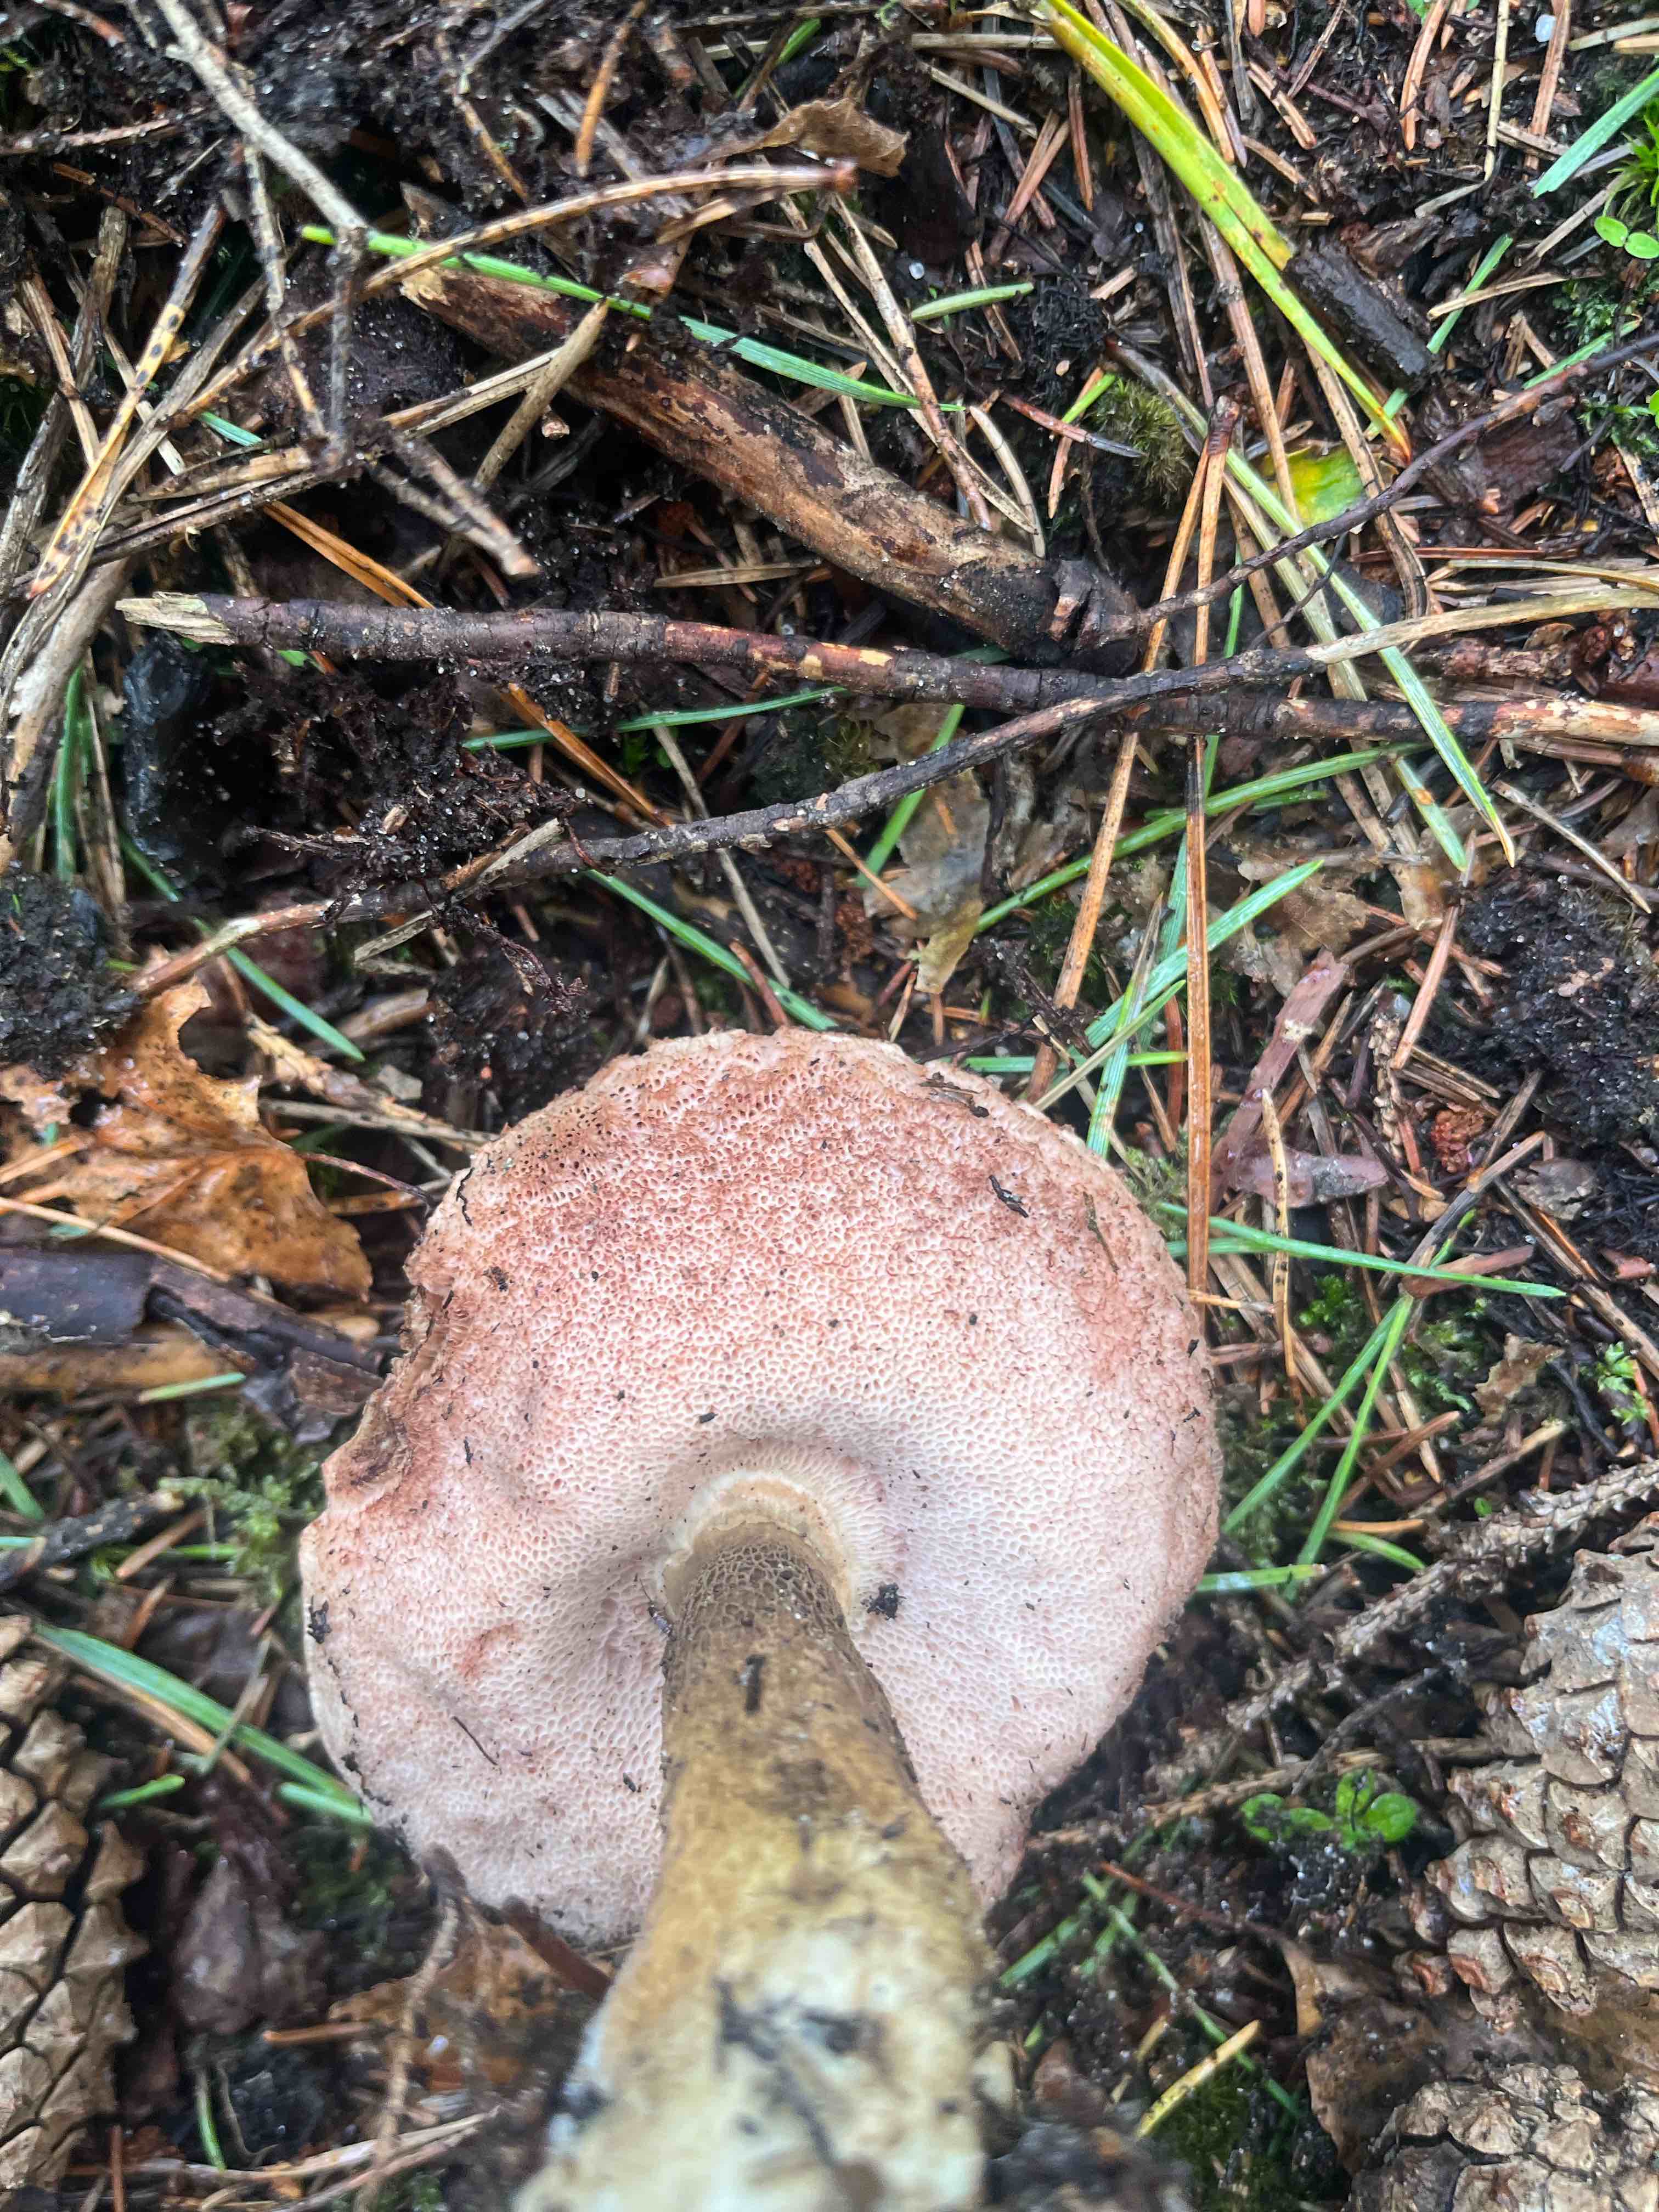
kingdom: Fungi
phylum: Basidiomycota
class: Agaricomycetes
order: Boletales
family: Boletaceae
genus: Tylopilus
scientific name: Tylopilus felleus
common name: galderørhat
